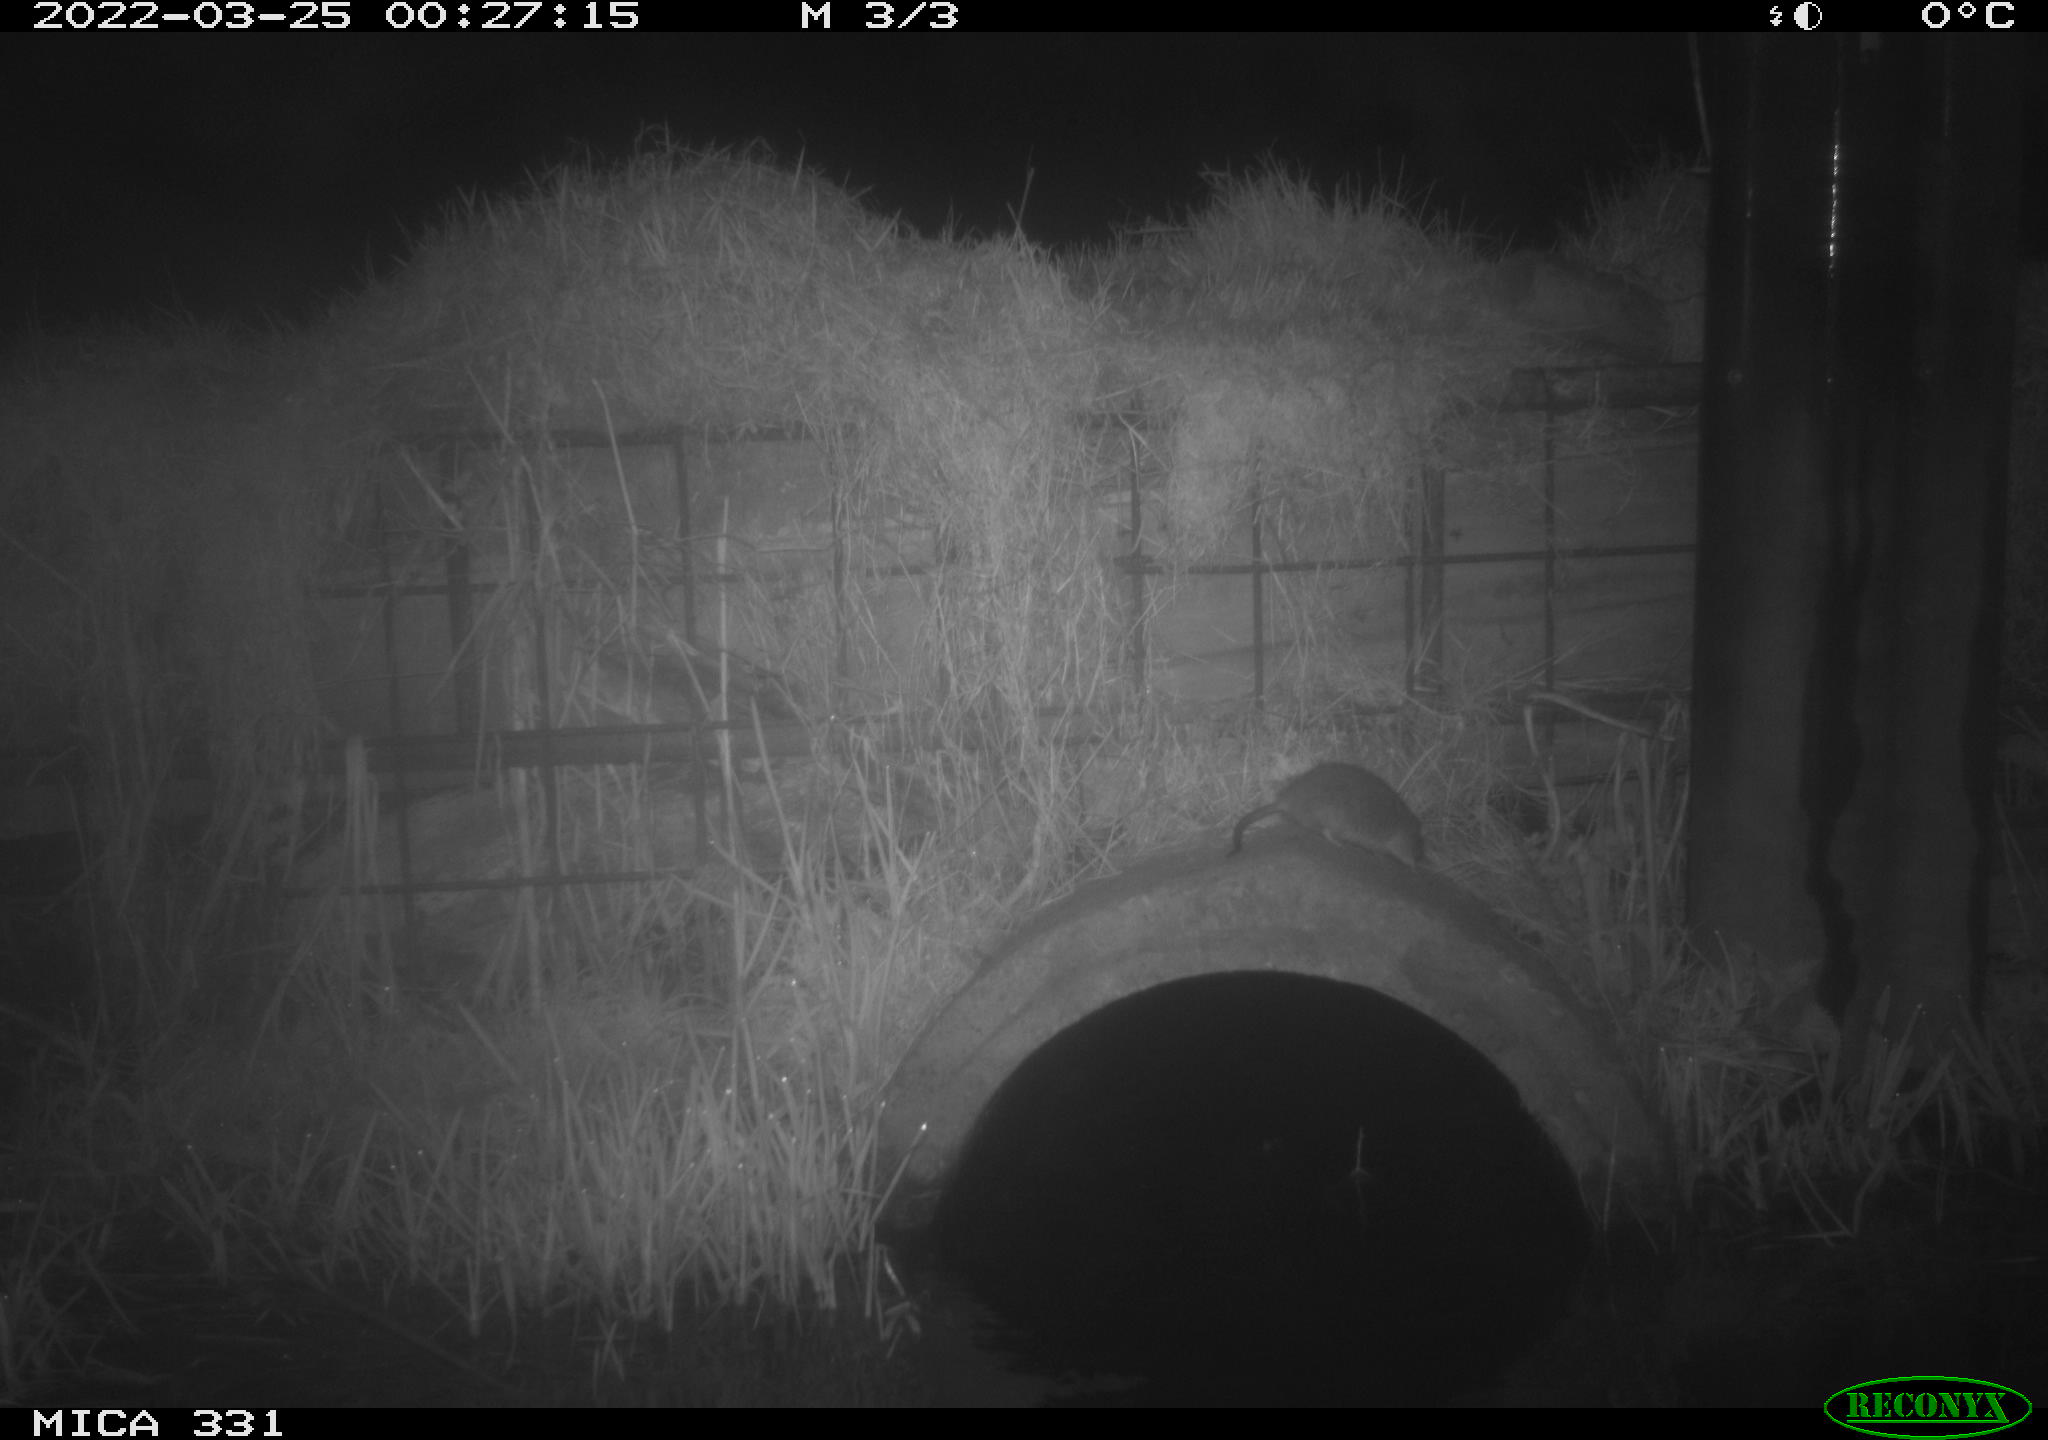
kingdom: Animalia
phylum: Chordata
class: Mammalia
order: Rodentia
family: Muridae
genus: Rattus
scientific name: Rattus norvegicus
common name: Brown rat
